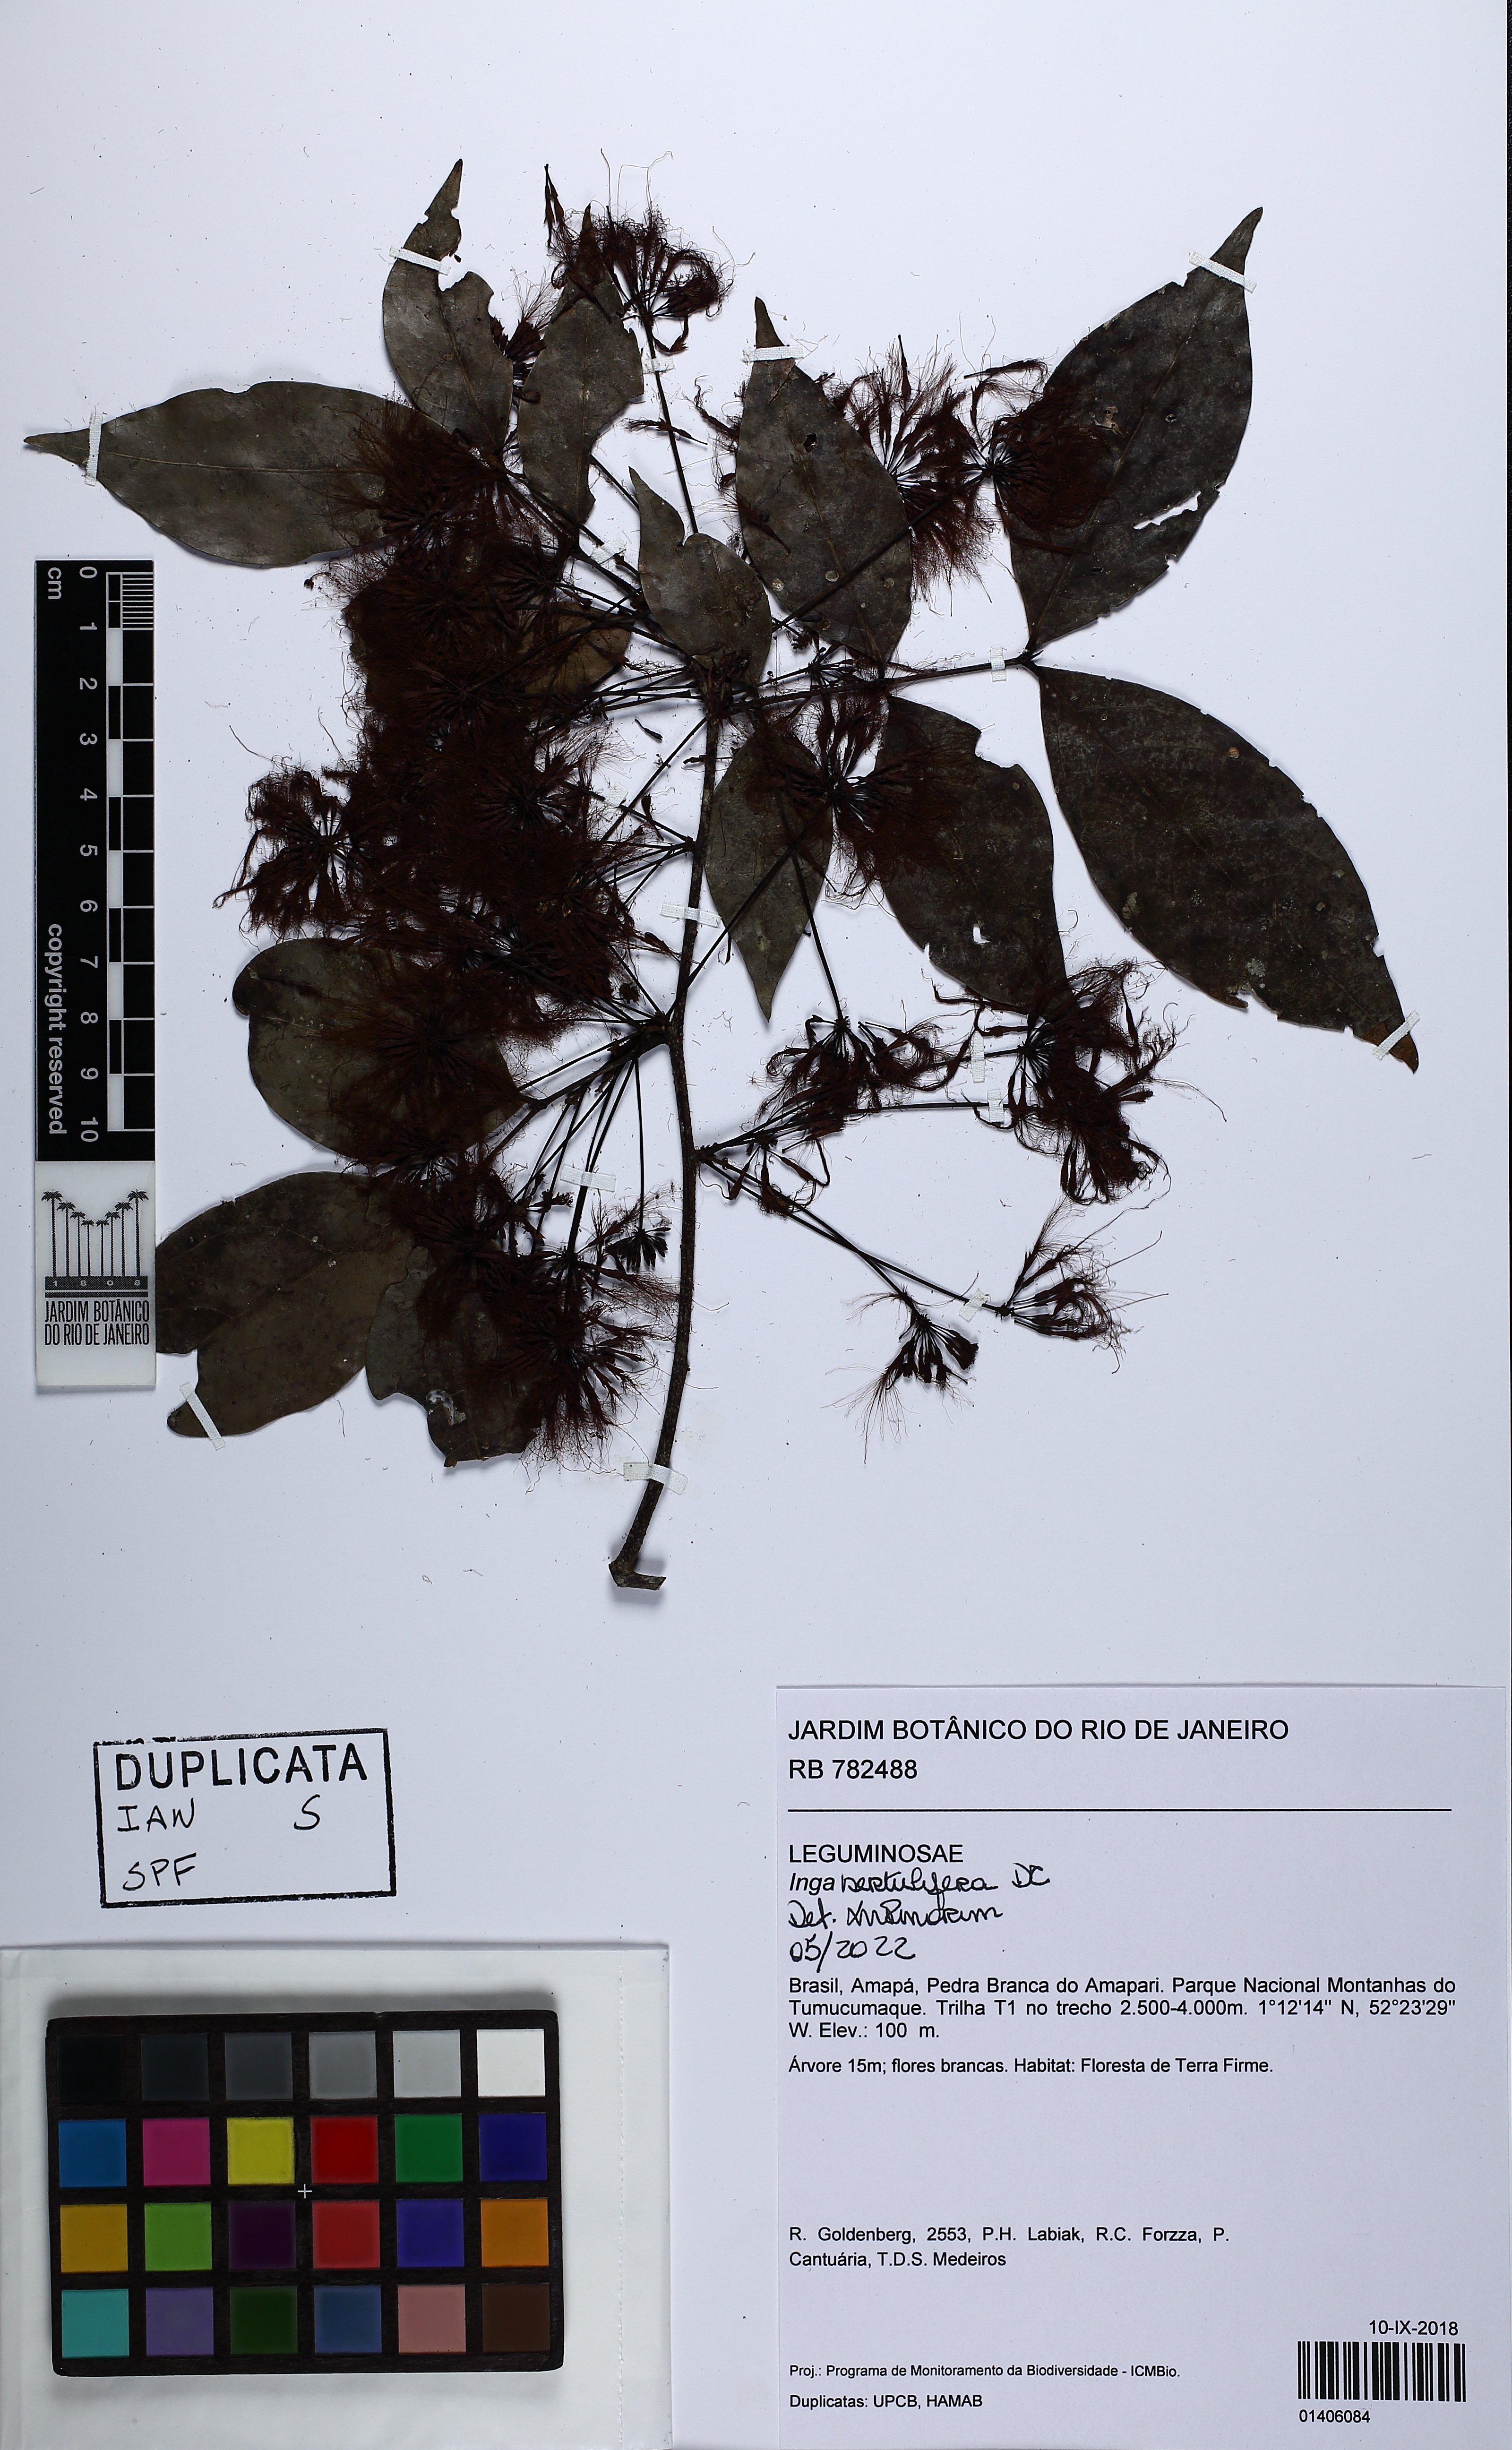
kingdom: Plantae
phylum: Tracheophyta
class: Magnoliopsida
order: Fabales
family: Fabaceae
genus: Inga
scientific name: Inga sertulifera
